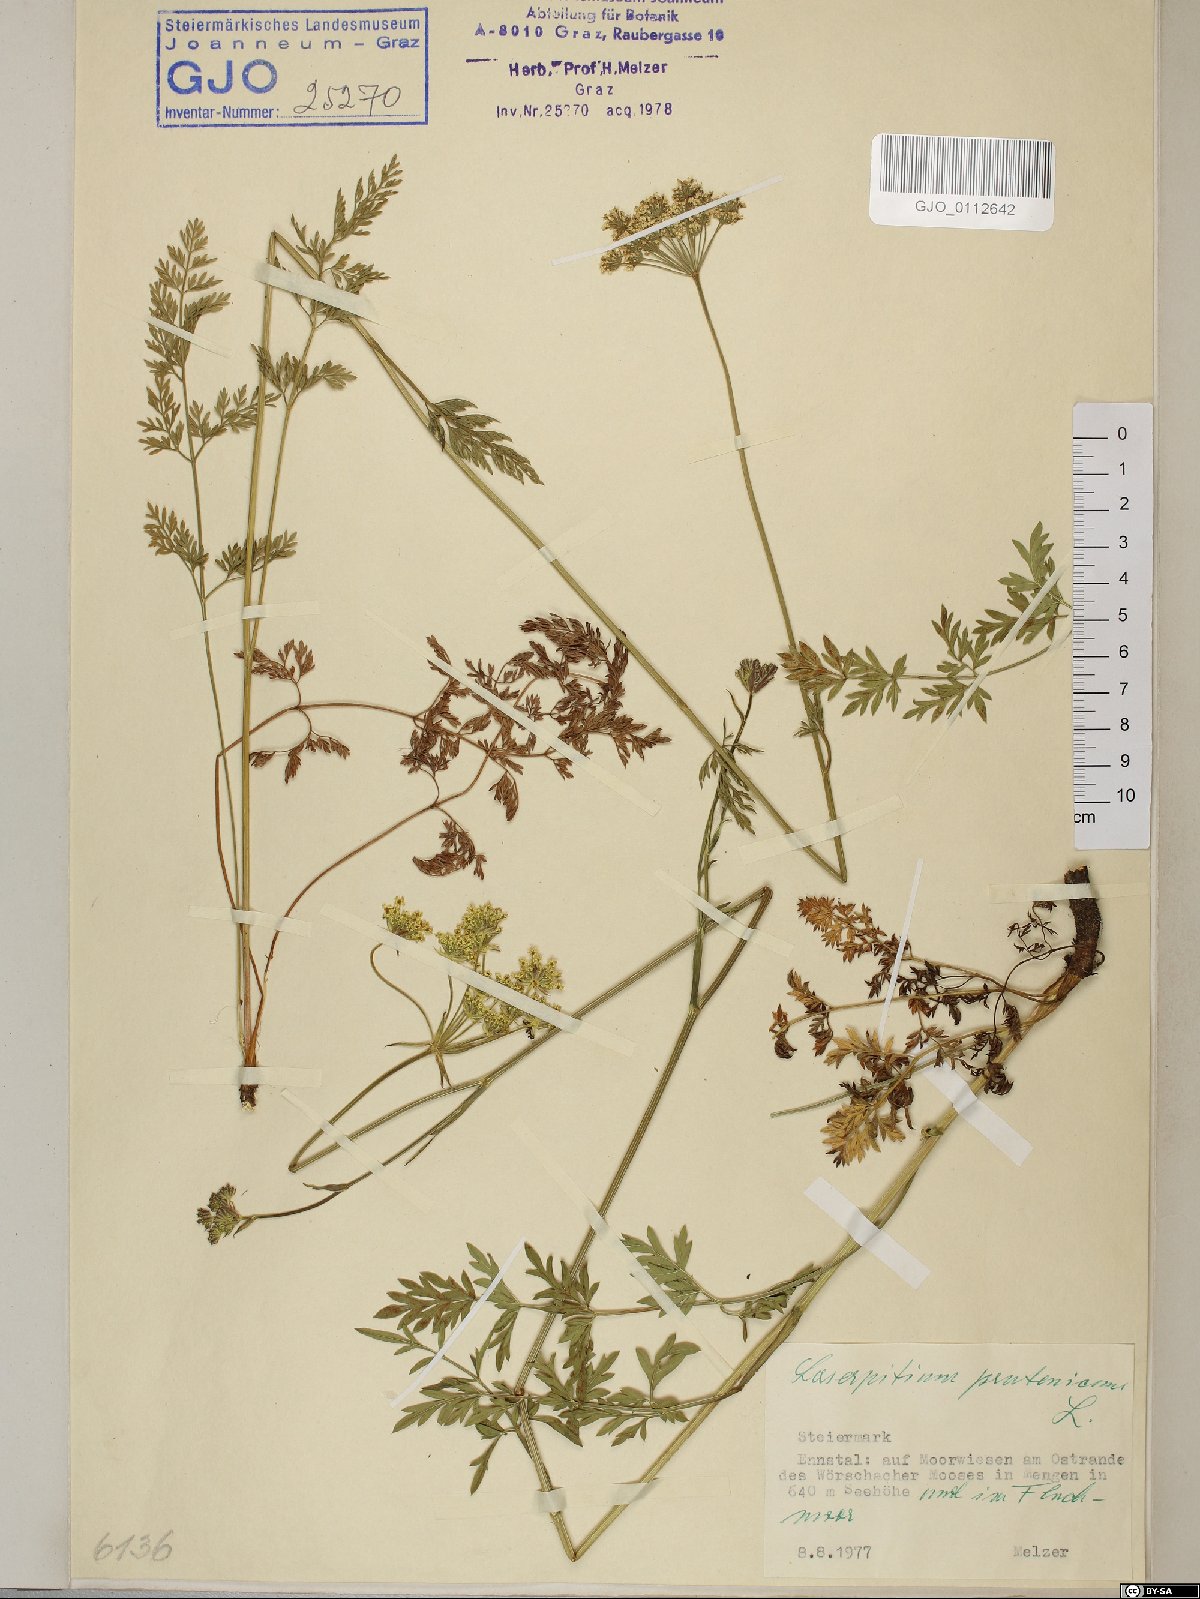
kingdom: Plantae
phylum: Tracheophyta
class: Magnoliopsida
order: Apiales
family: Apiaceae
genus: Silphiodaucus
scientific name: Silphiodaucus prutenicus
